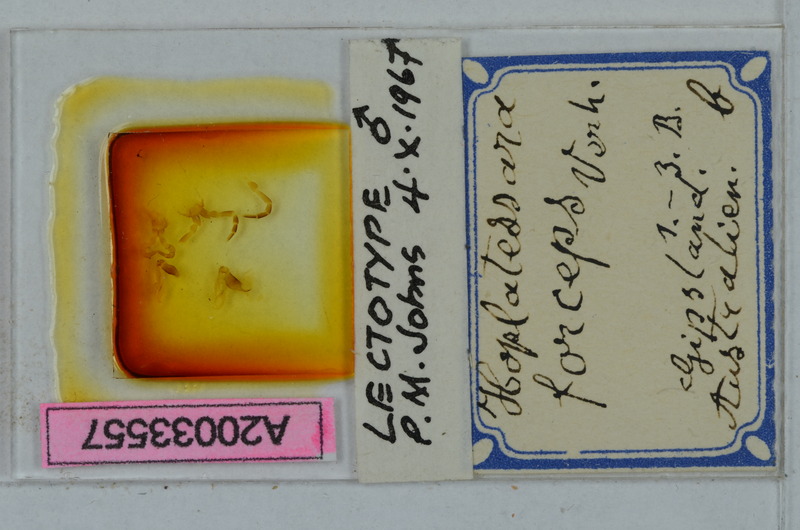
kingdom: Animalia
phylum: Arthropoda
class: Diplopoda
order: Polydesmida
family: Paradoxosomatidae
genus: Cladethosoma
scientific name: Cladethosoma forceps
